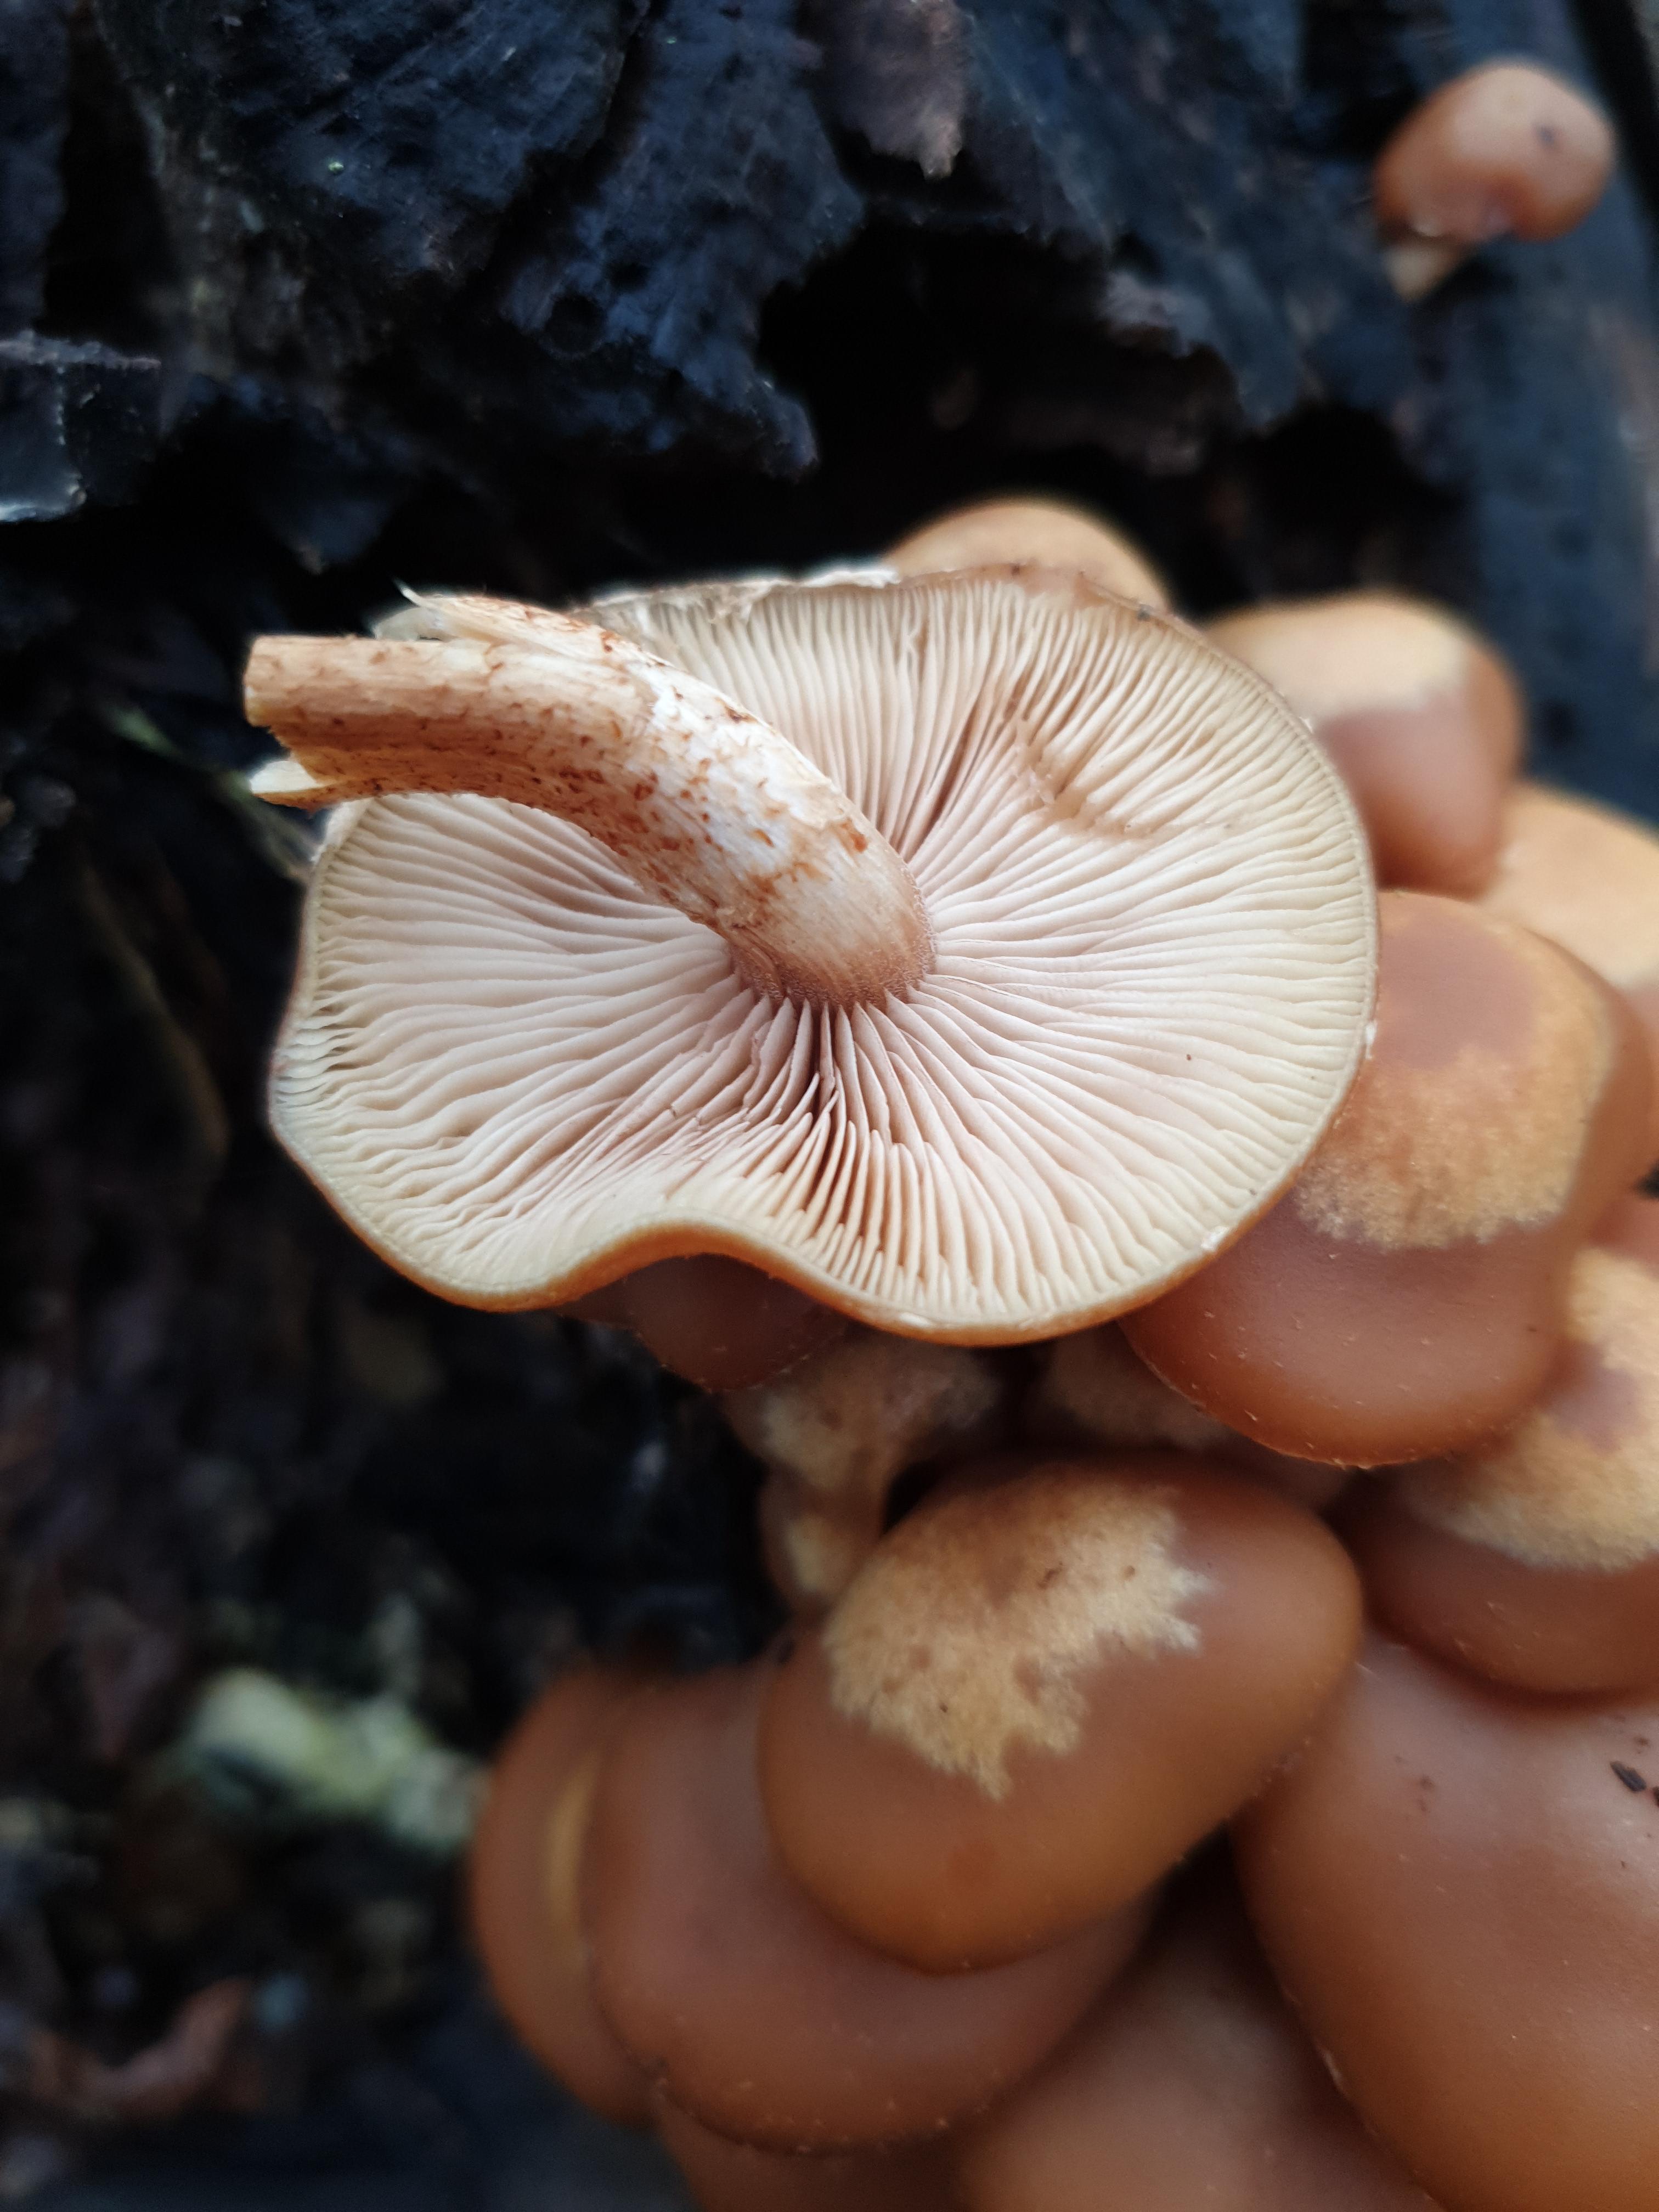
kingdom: Fungi
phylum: Basidiomycota
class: Agaricomycetes
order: Agaricales
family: Strophariaceae
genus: Kuehneromyces
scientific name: Kuehneromyces mutabilis
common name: foranderlig skælhat
